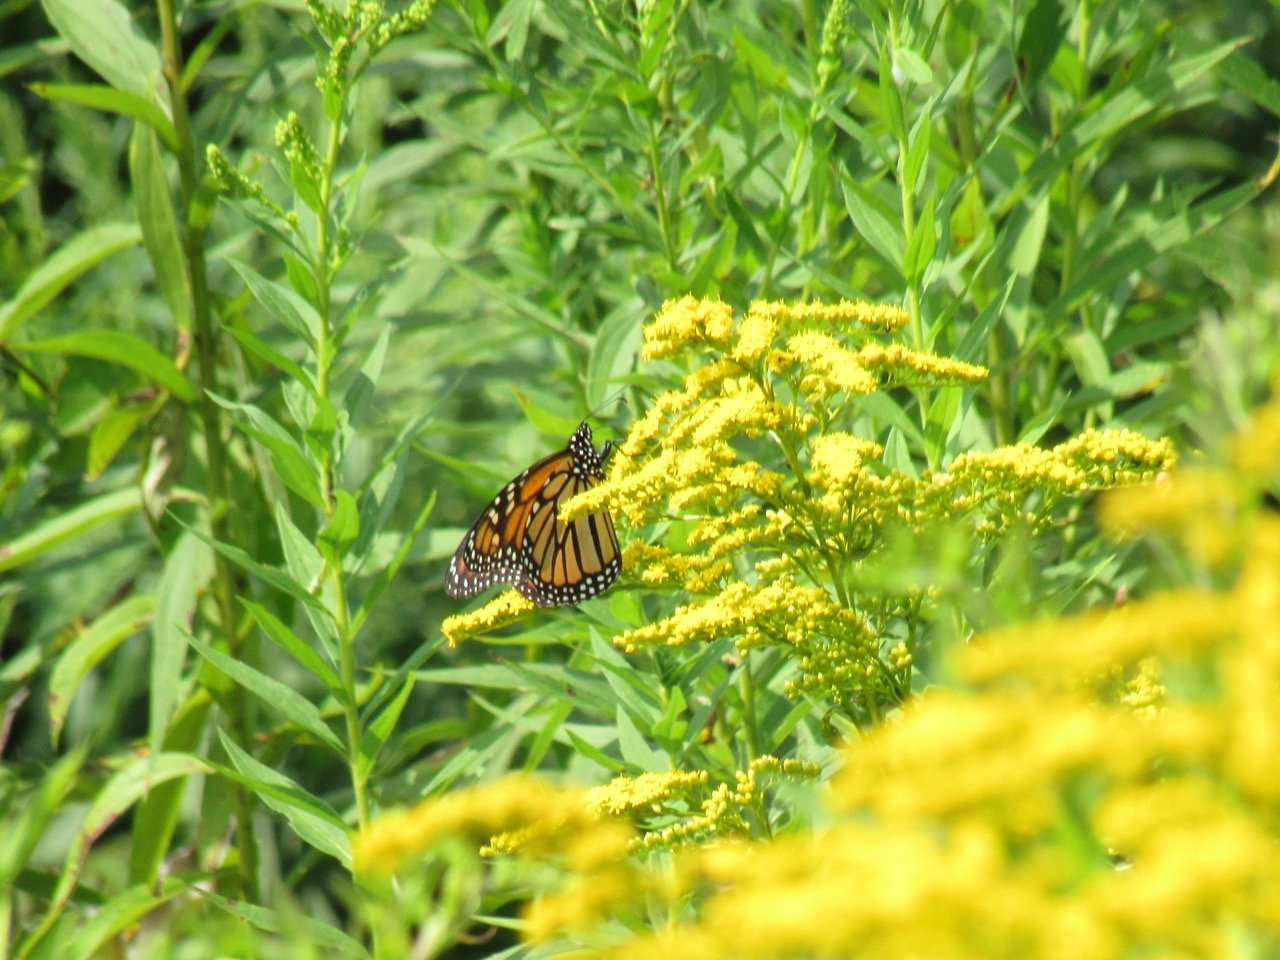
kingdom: Animalia
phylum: Arthropoda
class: Insecta
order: Lepidoptera
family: Nymphalidae
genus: Danaus
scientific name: Danaus plexippus
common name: Monarch
